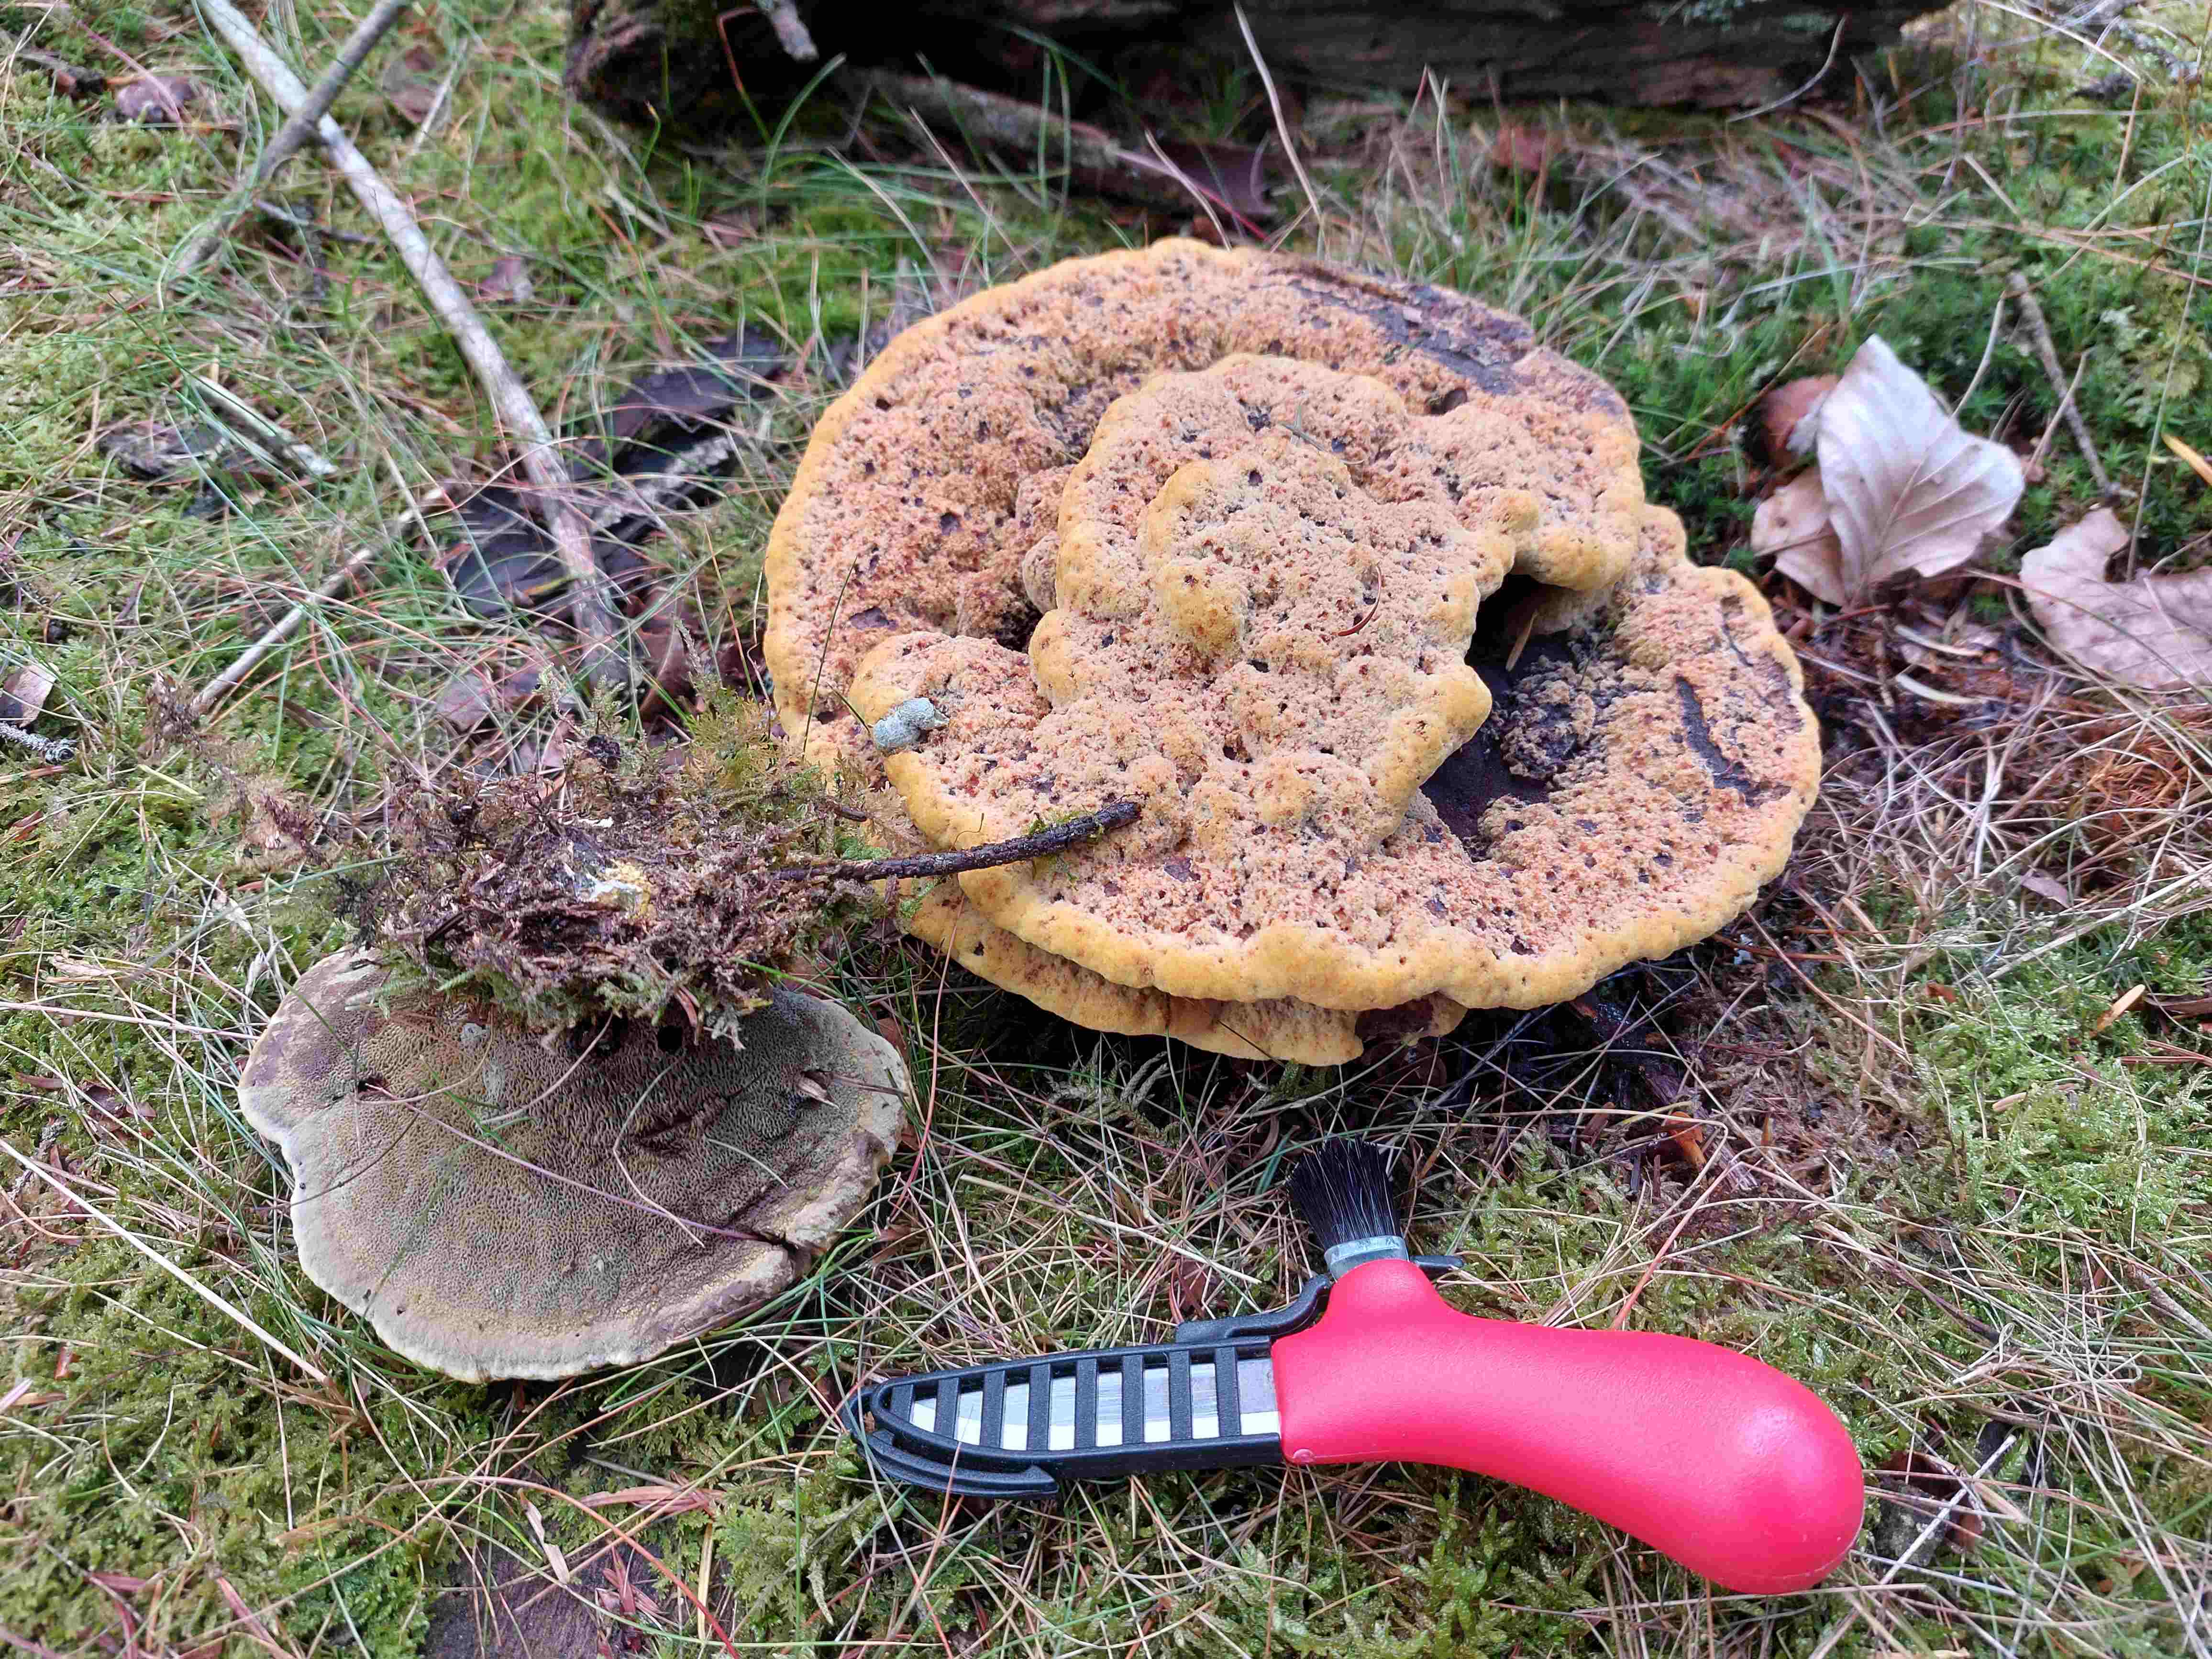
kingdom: Fungi
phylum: Basidiomycota
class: Agaricomycetes
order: Polyporales
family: Laetiporaceae
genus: Phaeolus
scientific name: Phaeolus schweinitzii
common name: brunporesvamp
